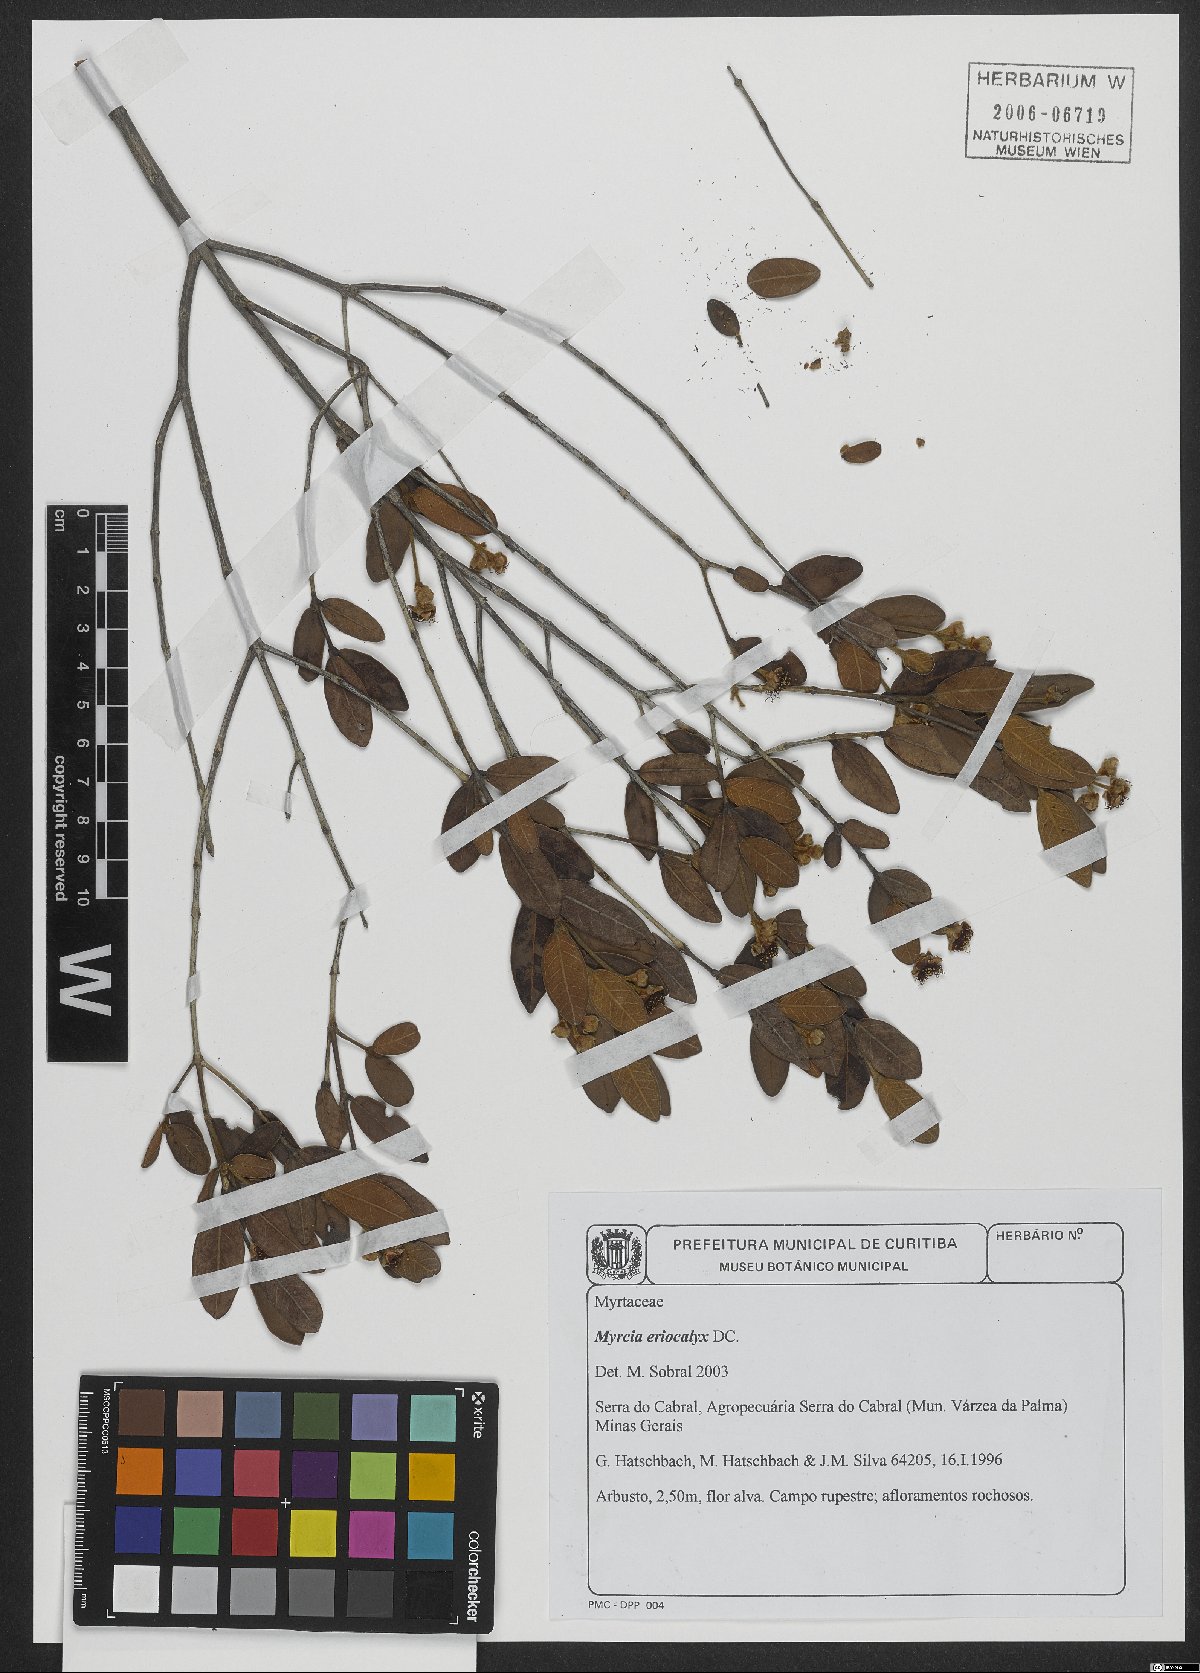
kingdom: Plantae
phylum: Tracheophyta
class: Magnoliopsida
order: Myrtales
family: Myrtaceae
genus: Myrcia
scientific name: Myrcia eriocalyx
